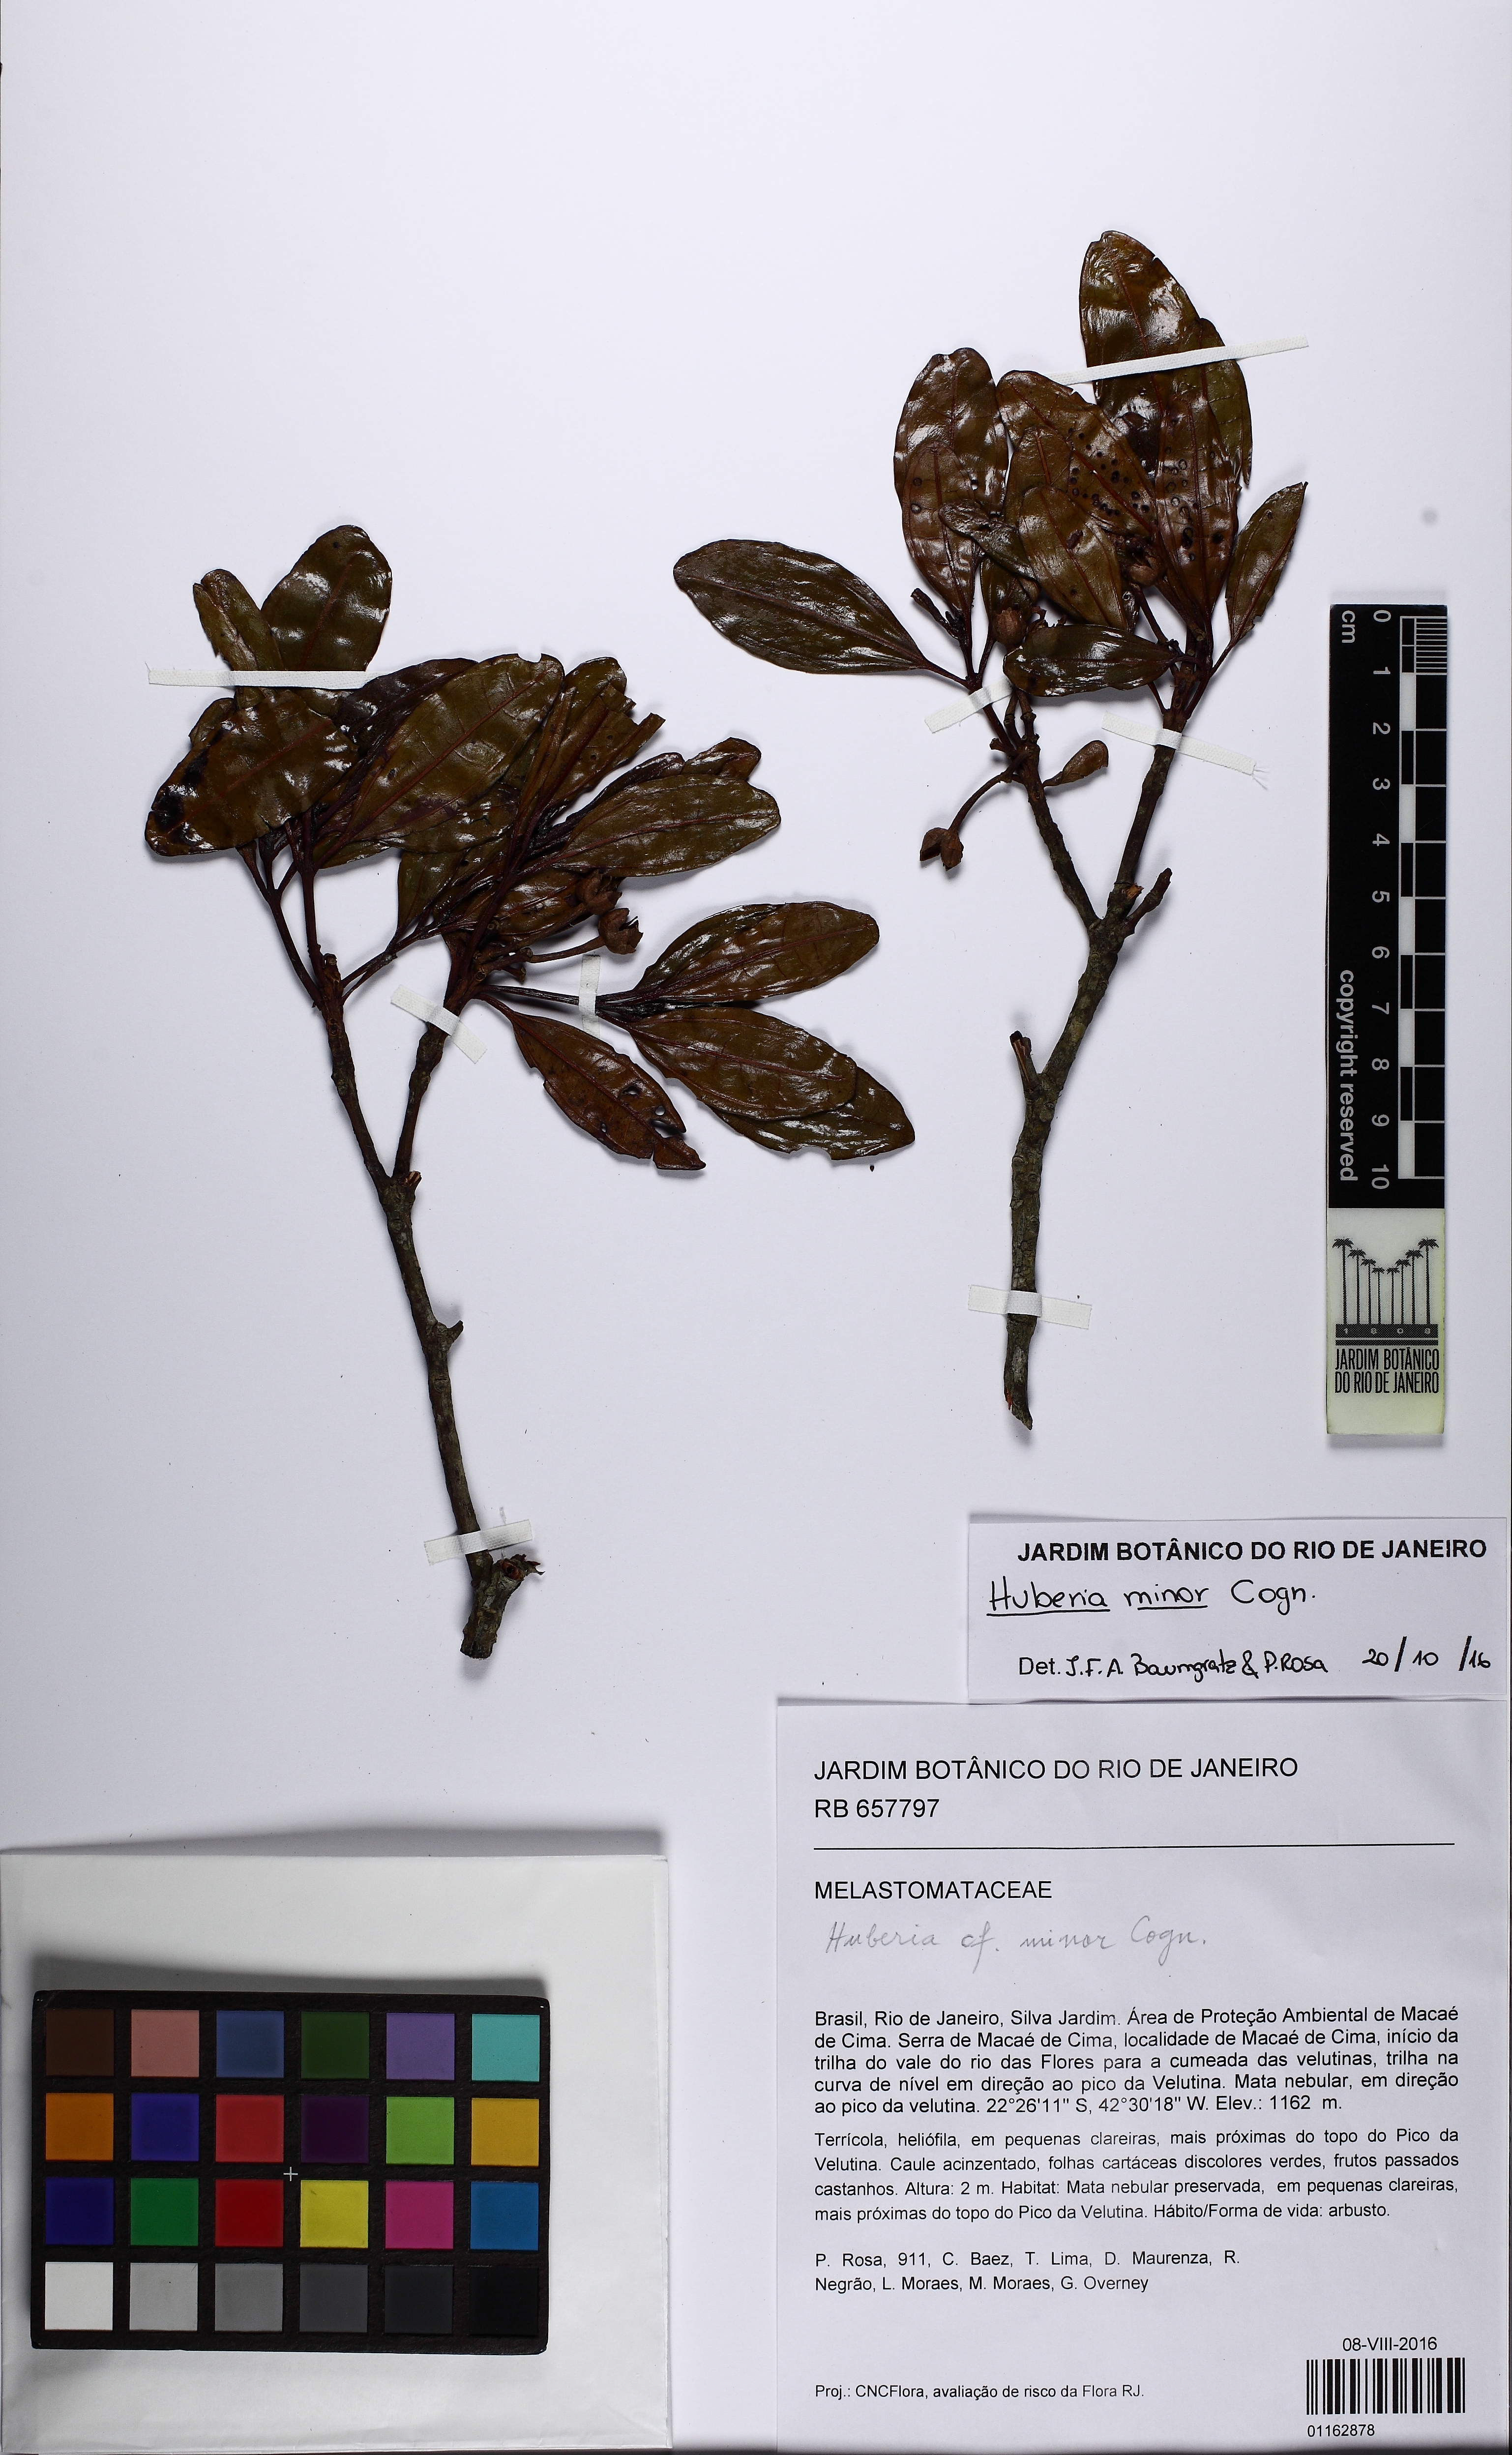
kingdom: Plantae
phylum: Tracheophyta
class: Magnoliopsida
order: Myrtales
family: Melastomataceae
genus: Huberia
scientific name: Huberia minor
